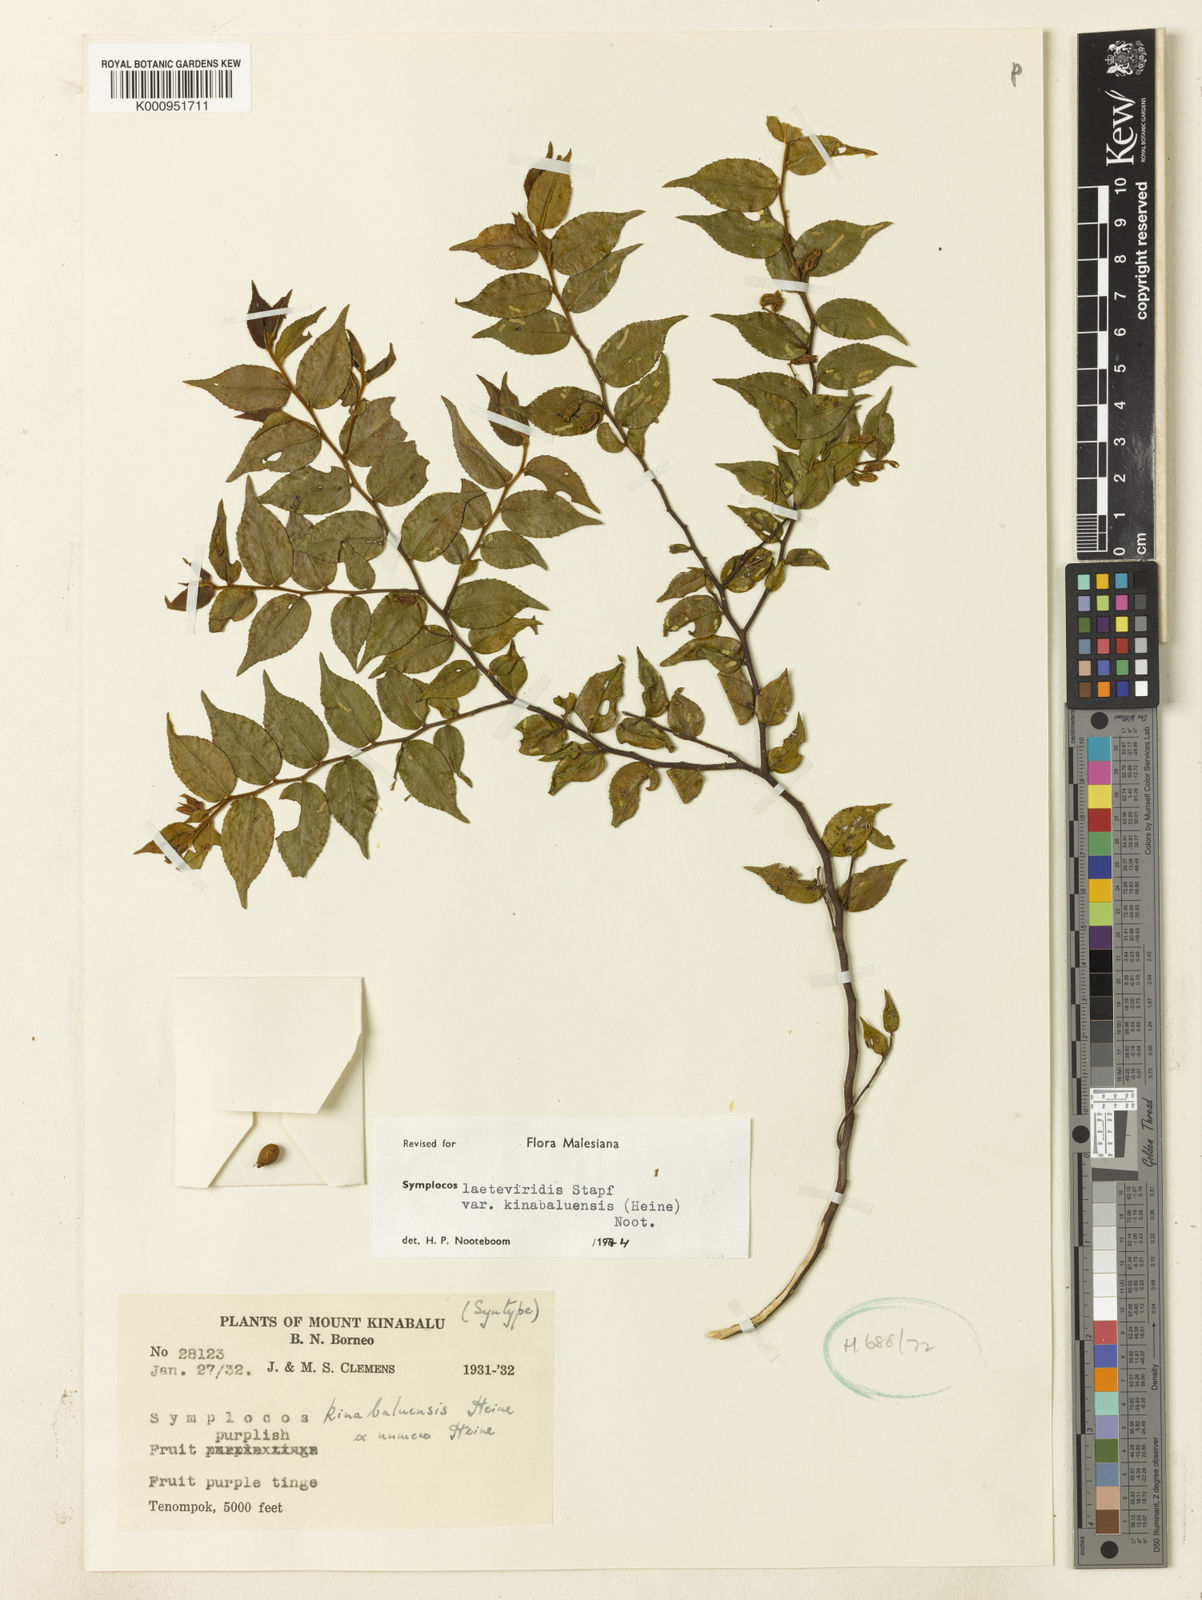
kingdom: Plantae
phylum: Tracheophyta
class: Magnoliopsida
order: Ericales
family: Symplocaceae
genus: Symplocos
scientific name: Symplocos laeteviridis
